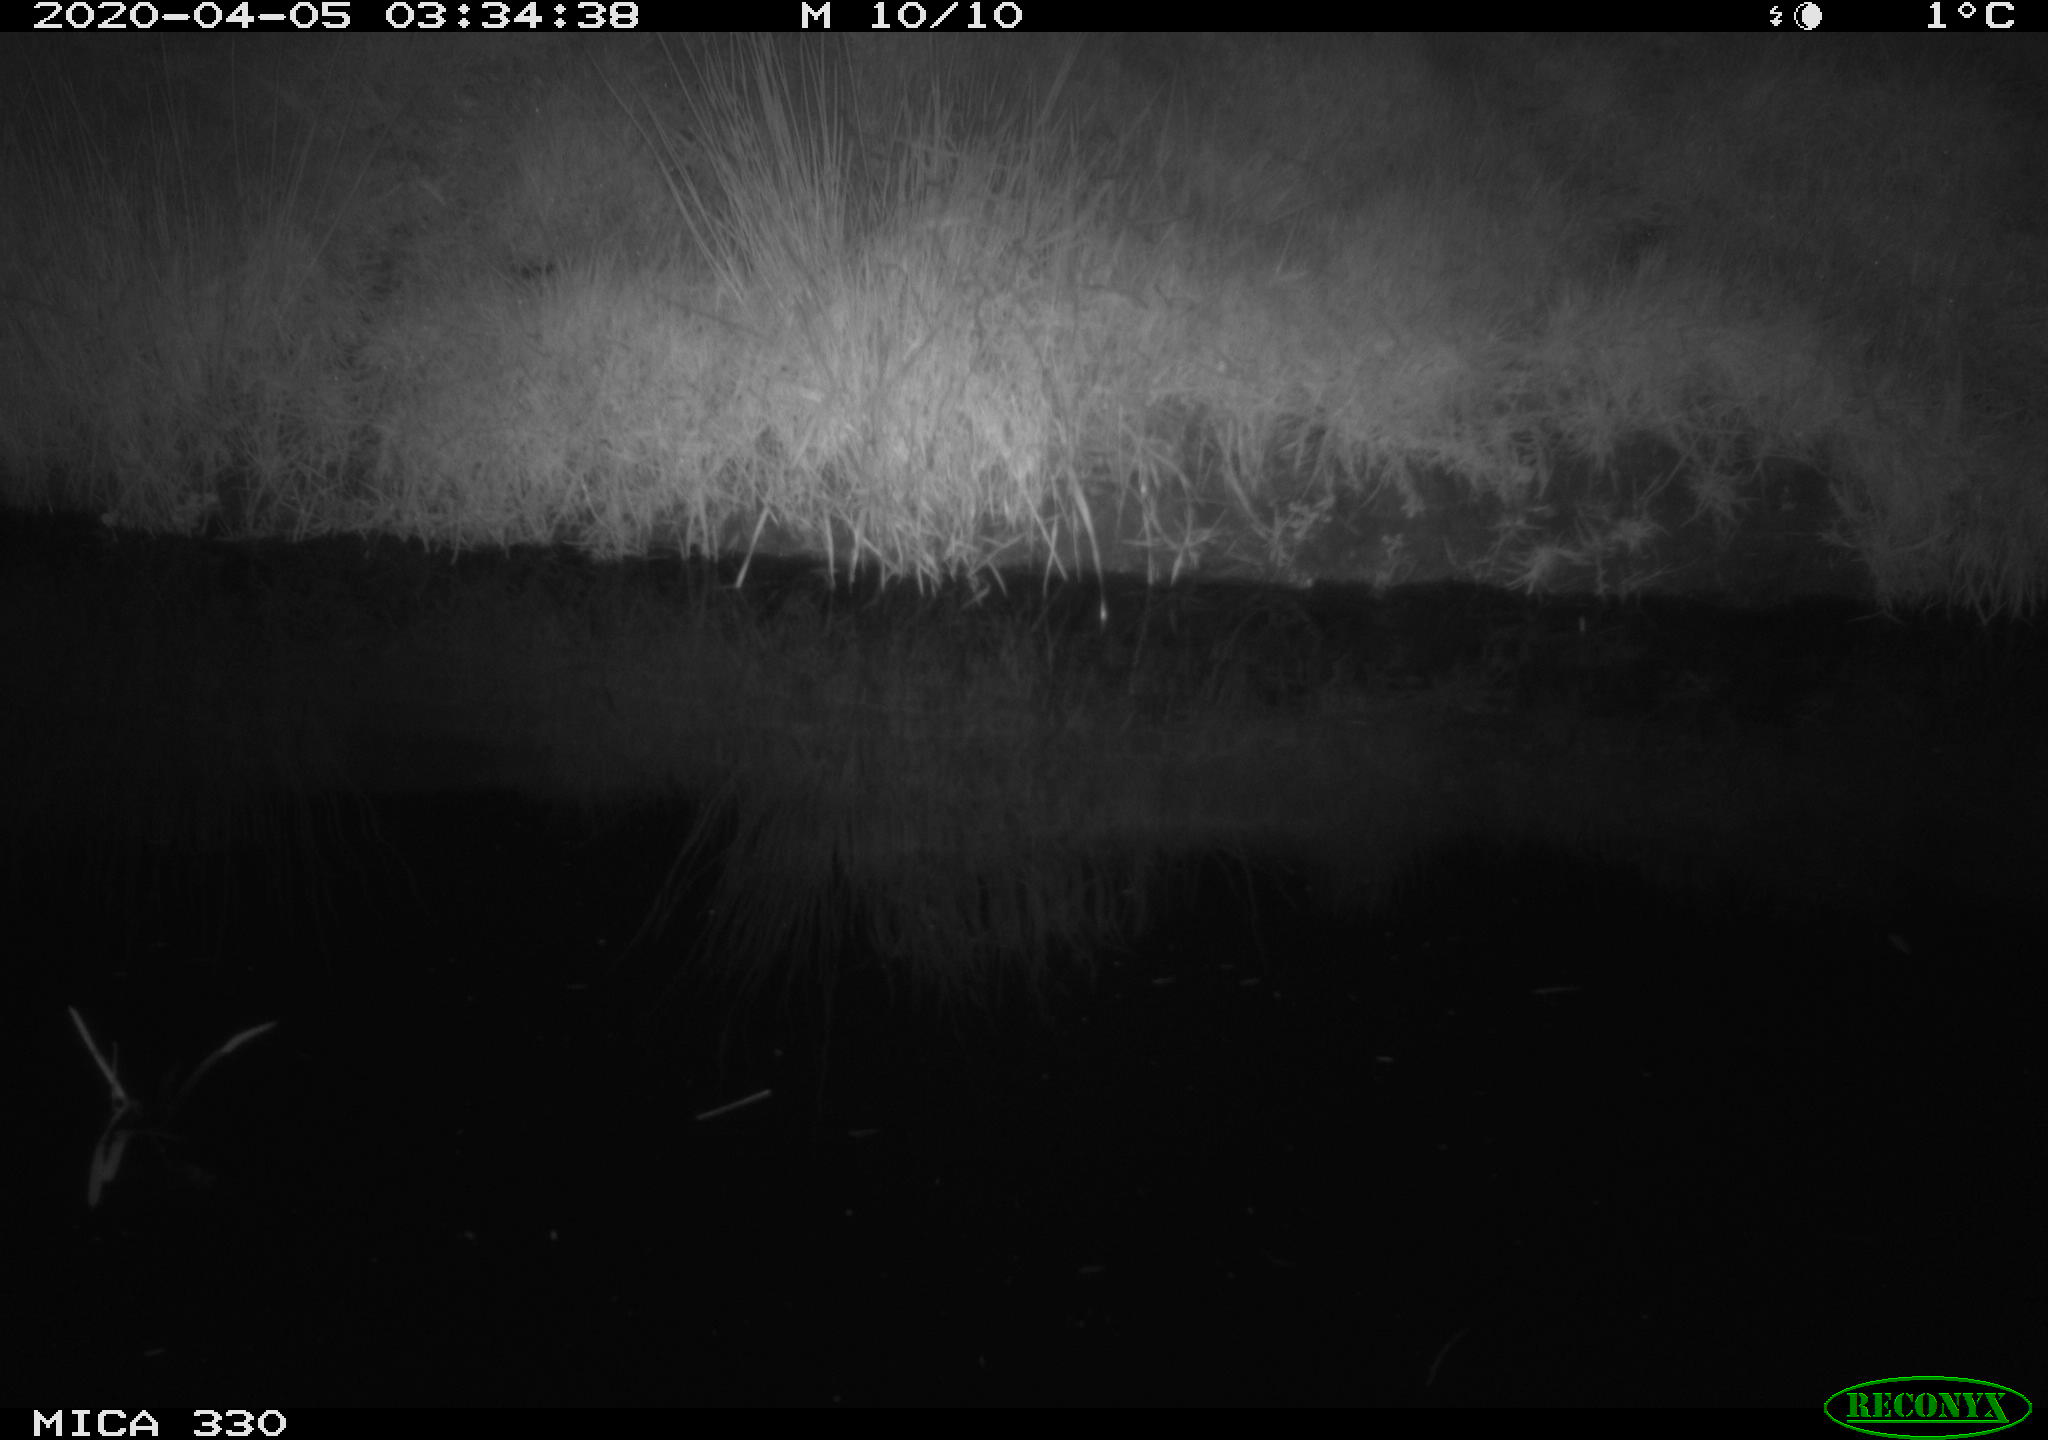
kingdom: Animalia
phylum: Chordata
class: Aves
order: Anseriformes
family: Anatidae
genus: Anas
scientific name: Anas platyrhynchos
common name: Mallard
